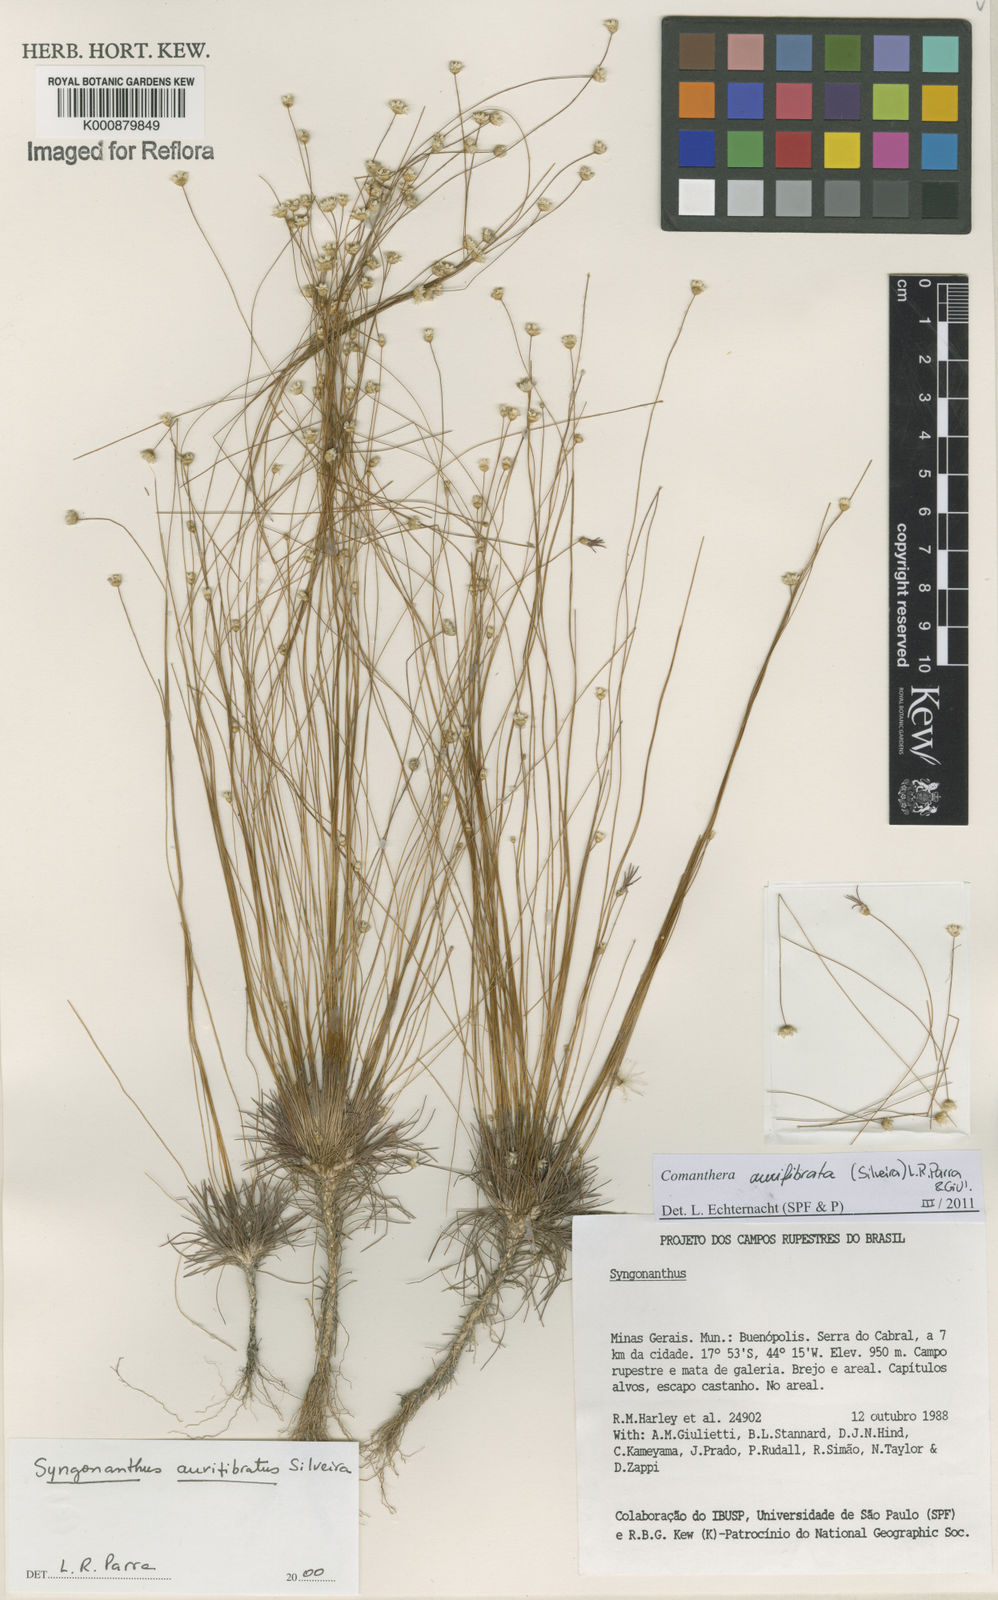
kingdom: Plantae
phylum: Tracheophyta
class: Liliopsida
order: Poales
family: Eriocaulaceae
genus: Comanthera
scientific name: Comanthera aurifibrata
